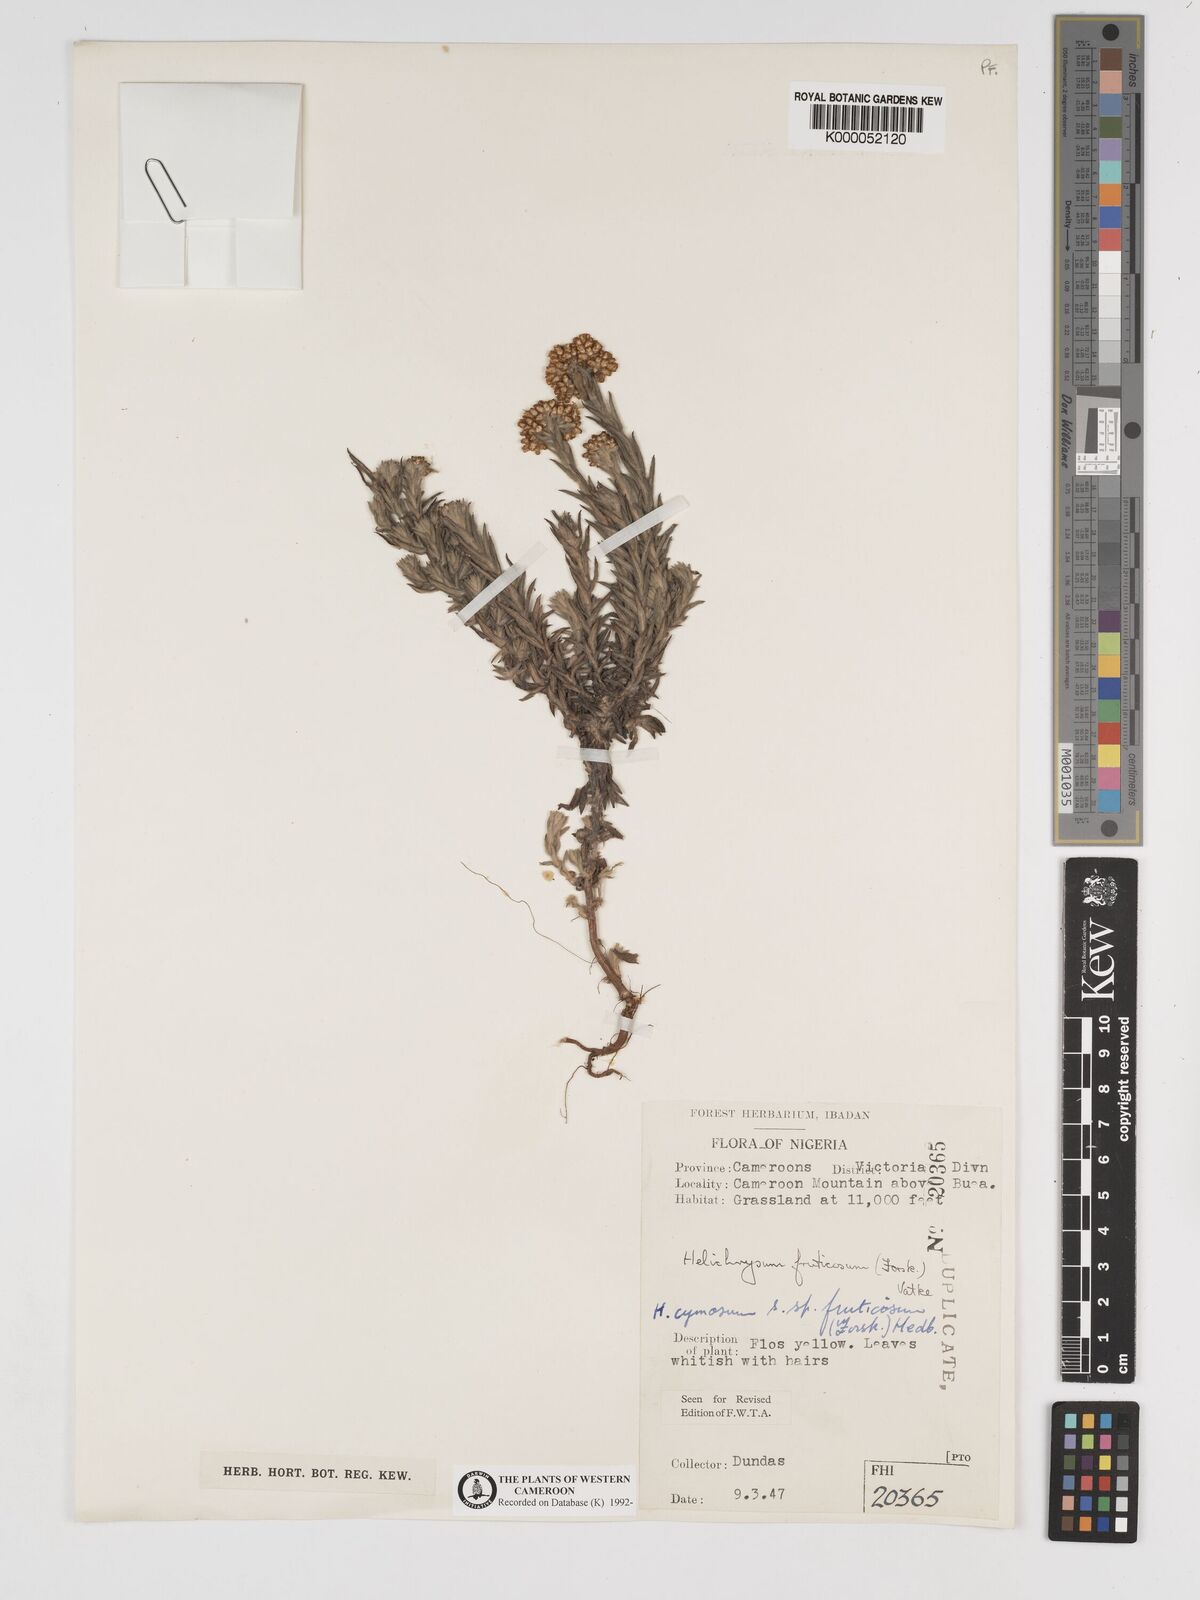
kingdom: Plantae
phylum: Tracheophyta
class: Magnoliopsida
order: Asterales
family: Asteraceae
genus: Helichrysum
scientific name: Helichrysum forskahlii
